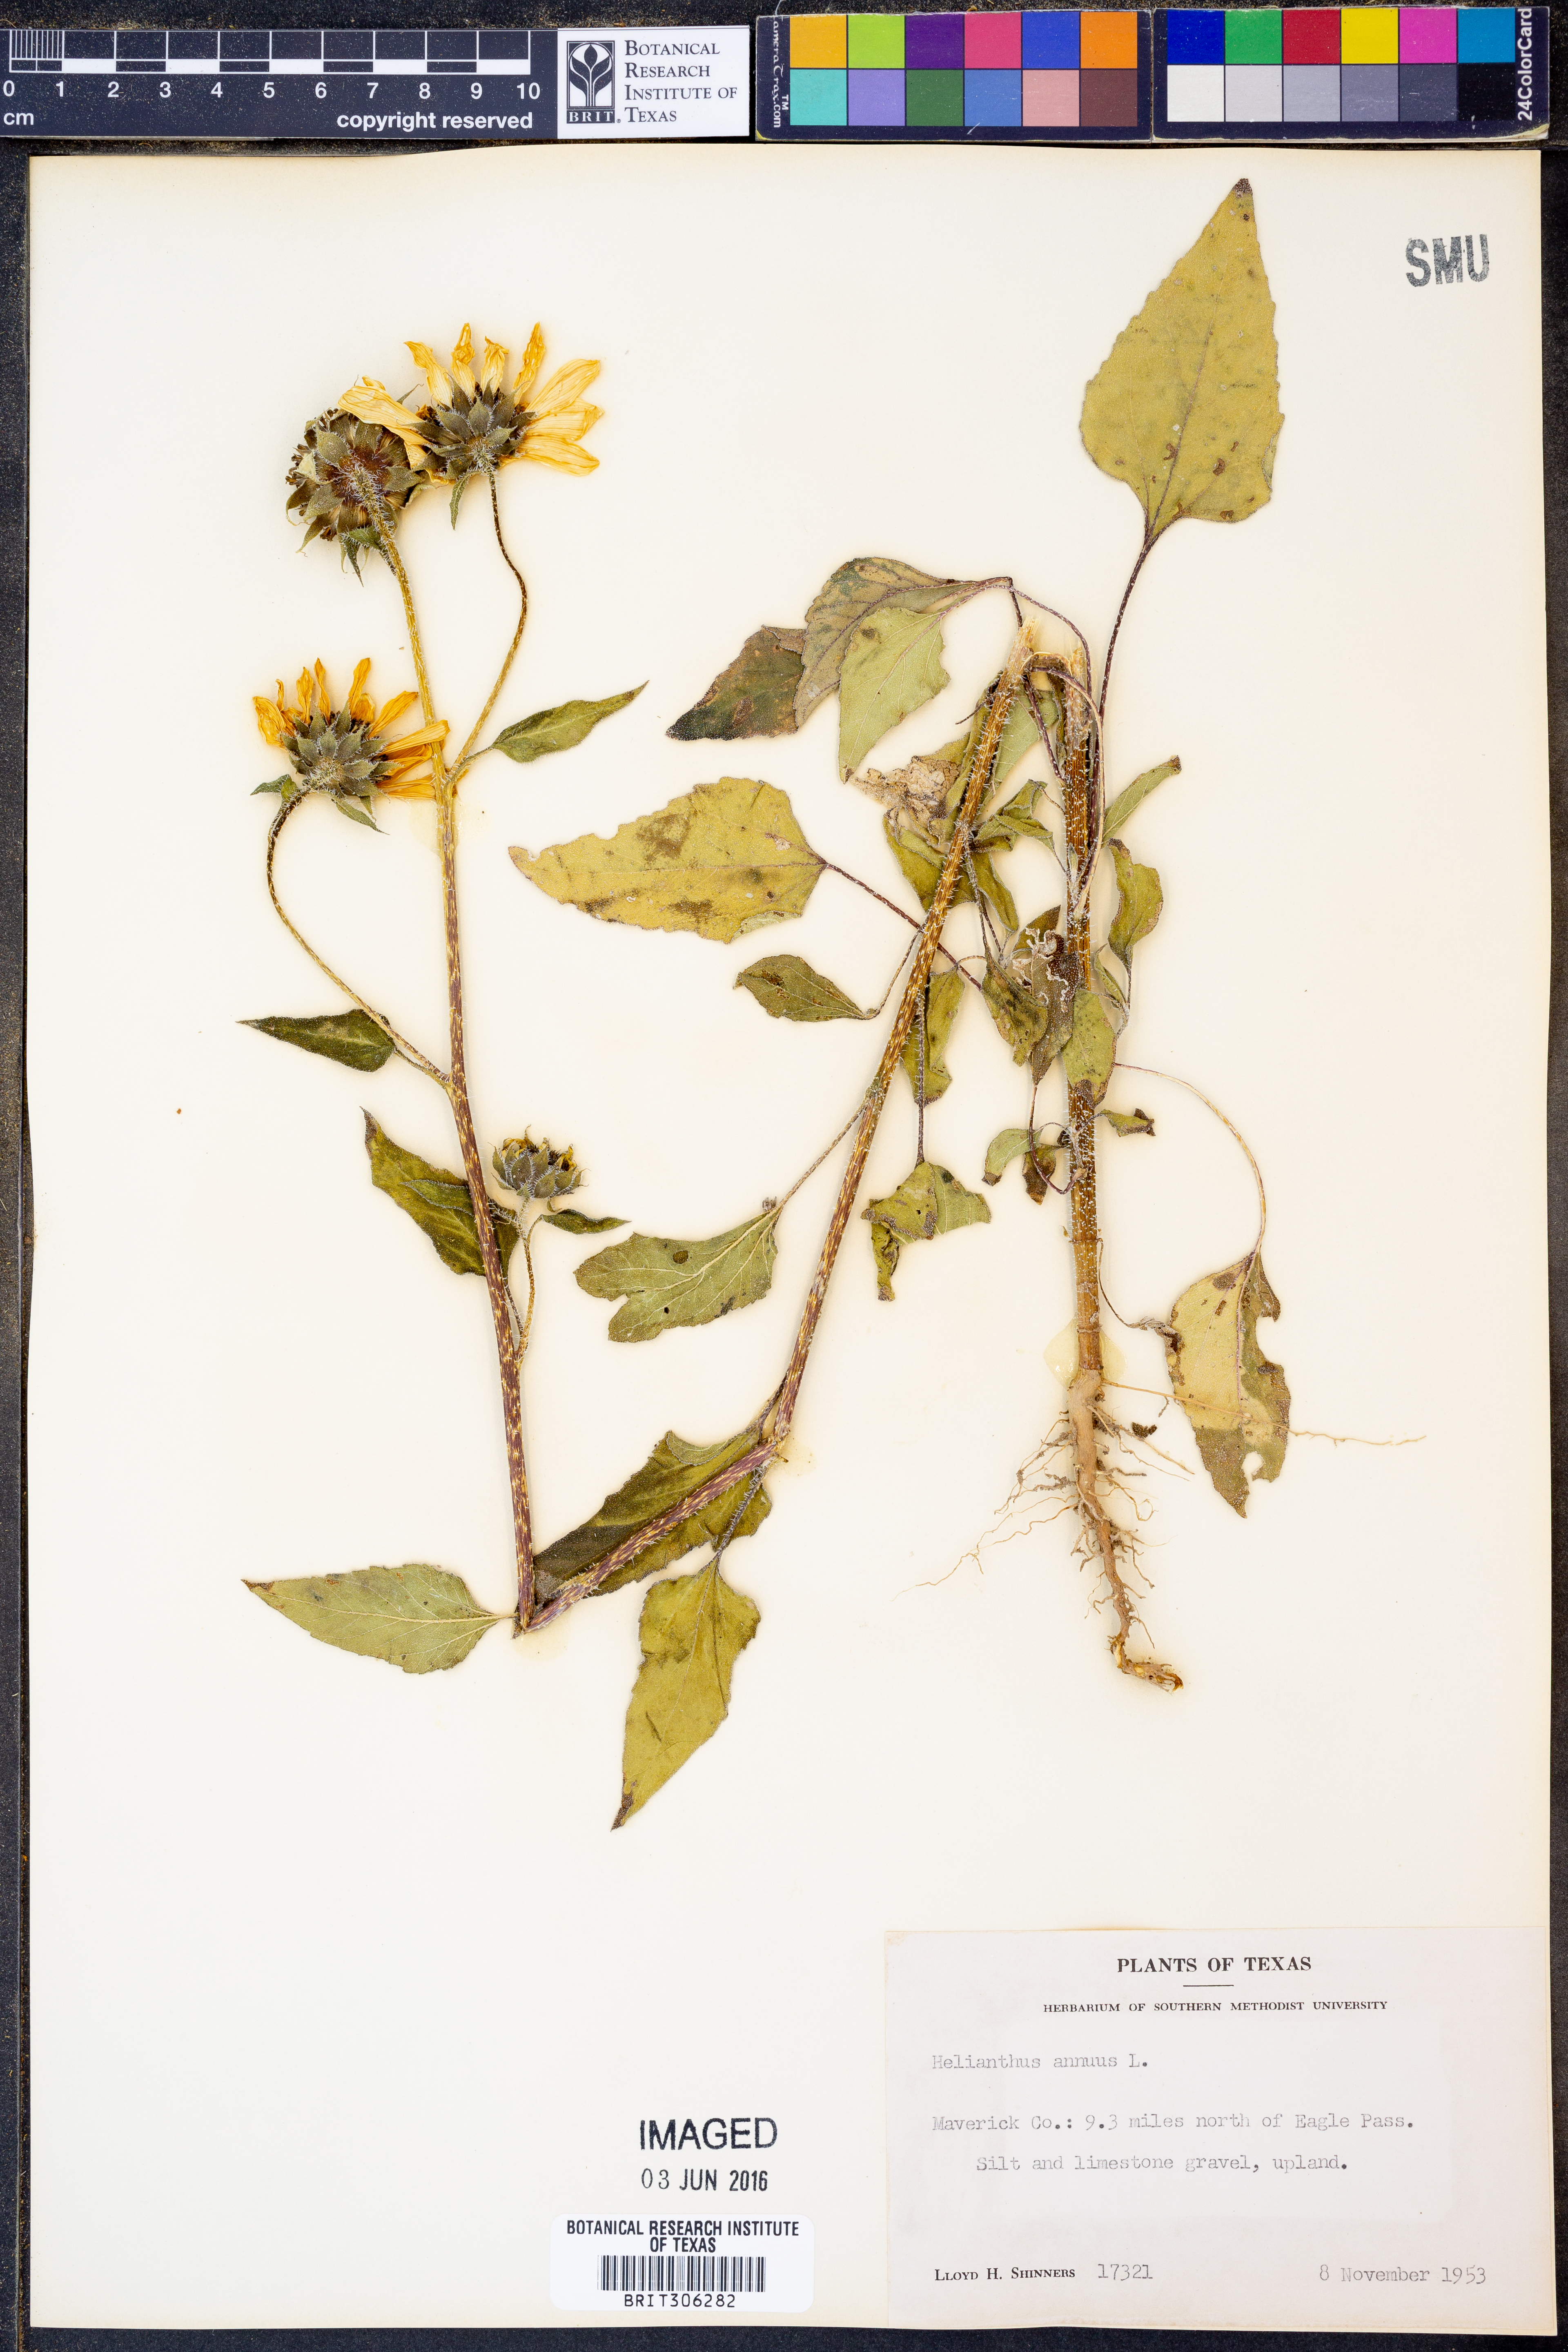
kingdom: Plantae
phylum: Tracheophyta
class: Magnoliopsida
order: Asterales
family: Asteraceae
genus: Helianthus
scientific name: Helianthus annuus
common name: Sunflower
